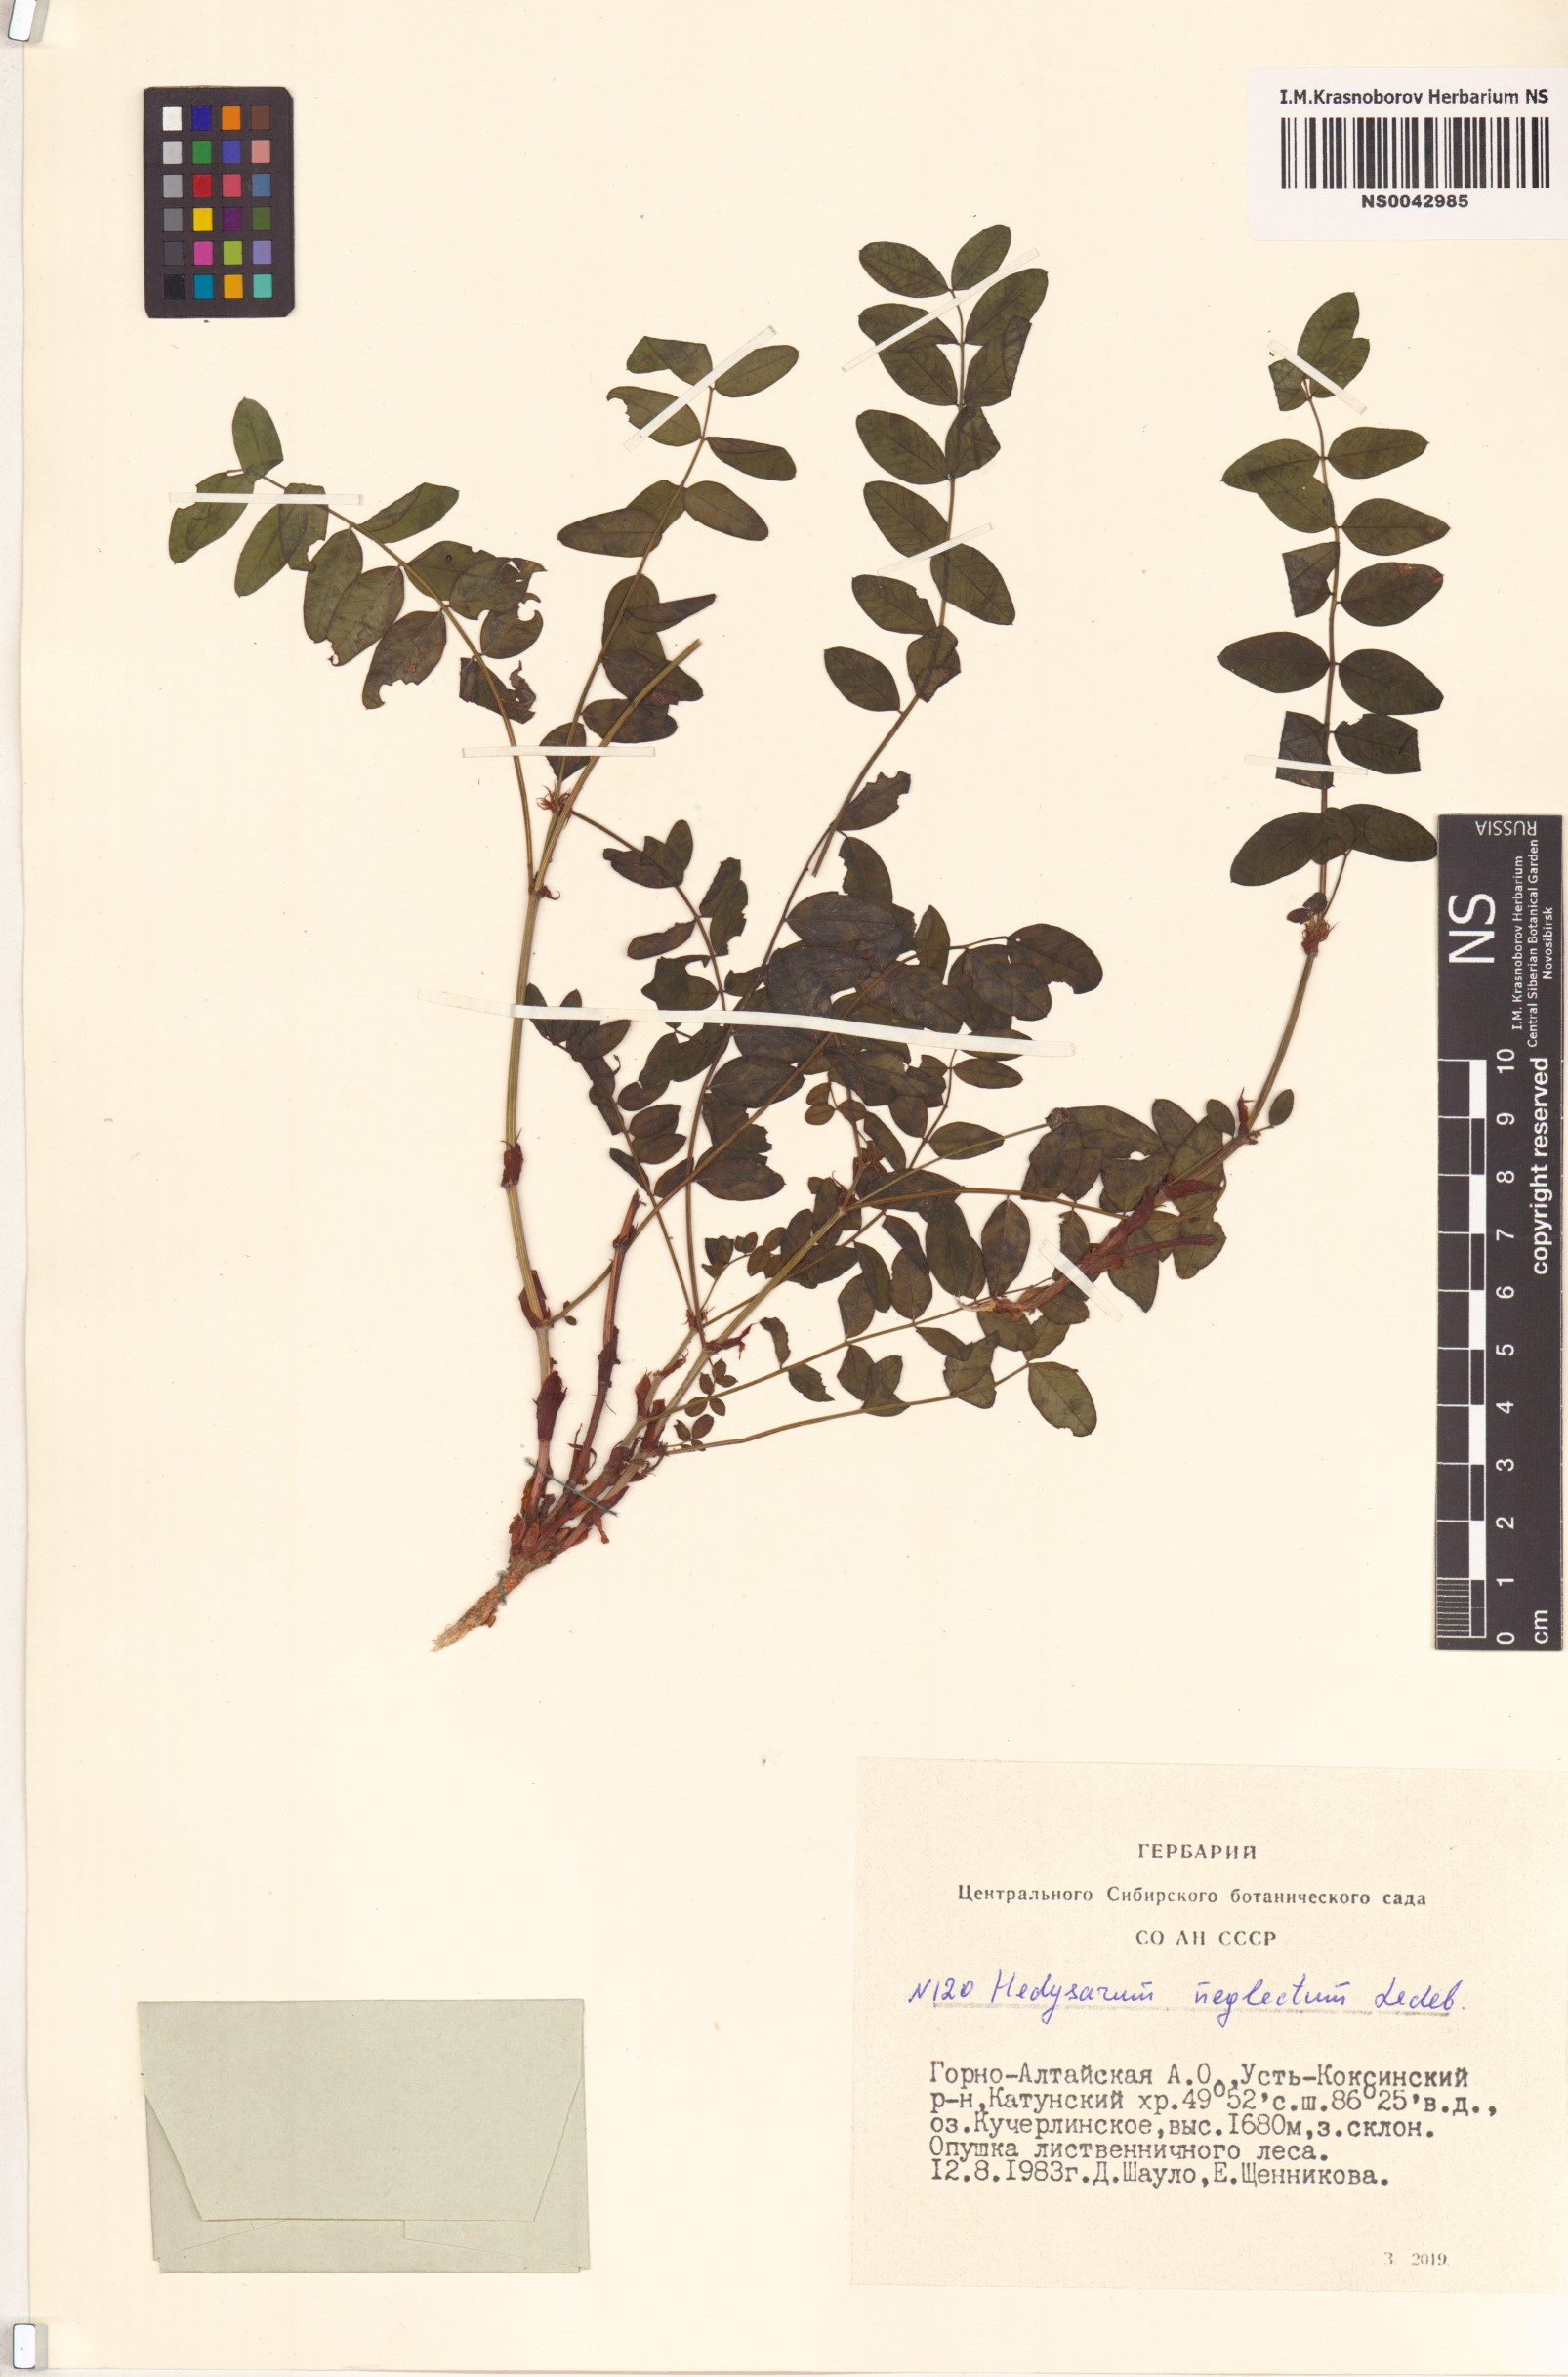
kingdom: Plantae
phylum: Tracheophyta
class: Magnoliopsida
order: Fabales
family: Fabaceae
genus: Hedysarum
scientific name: Hedysarum neglectum
